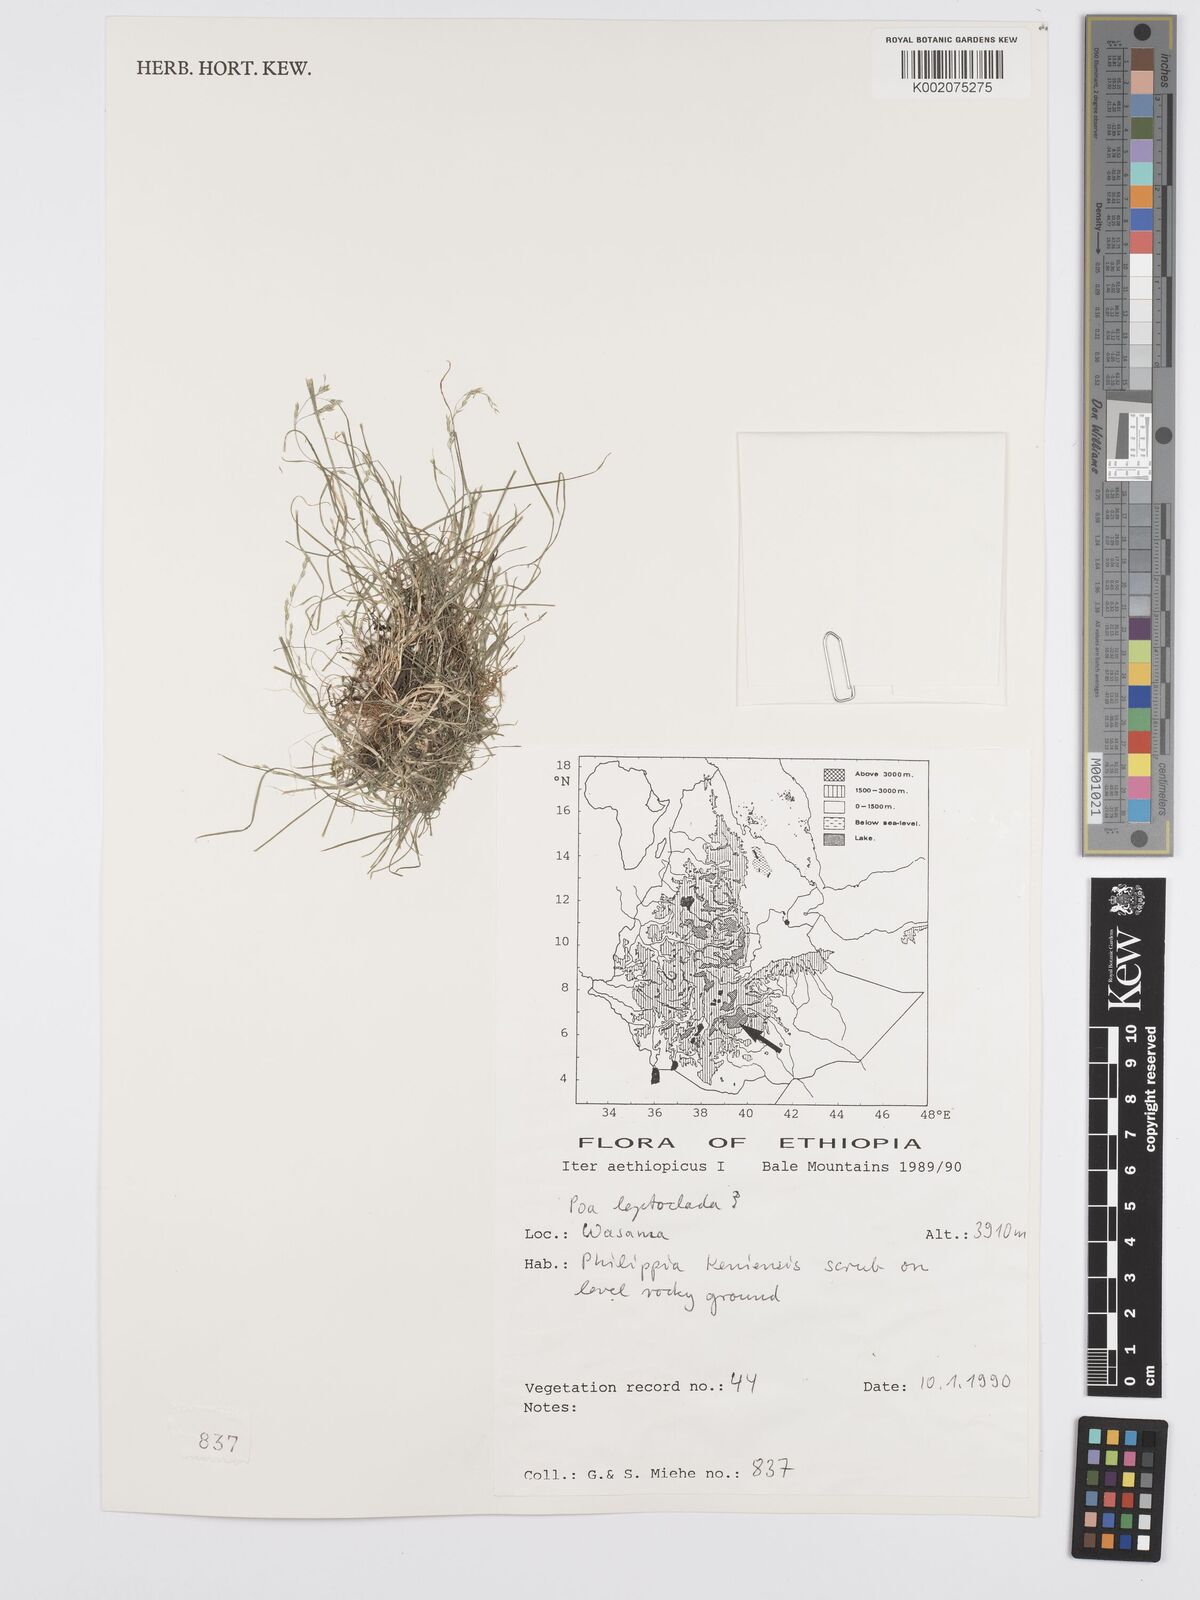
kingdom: Plantae
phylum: Tracheophyta
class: Liliopsida
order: Poales
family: Poaceae
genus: Poa
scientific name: Poa leptoclada
